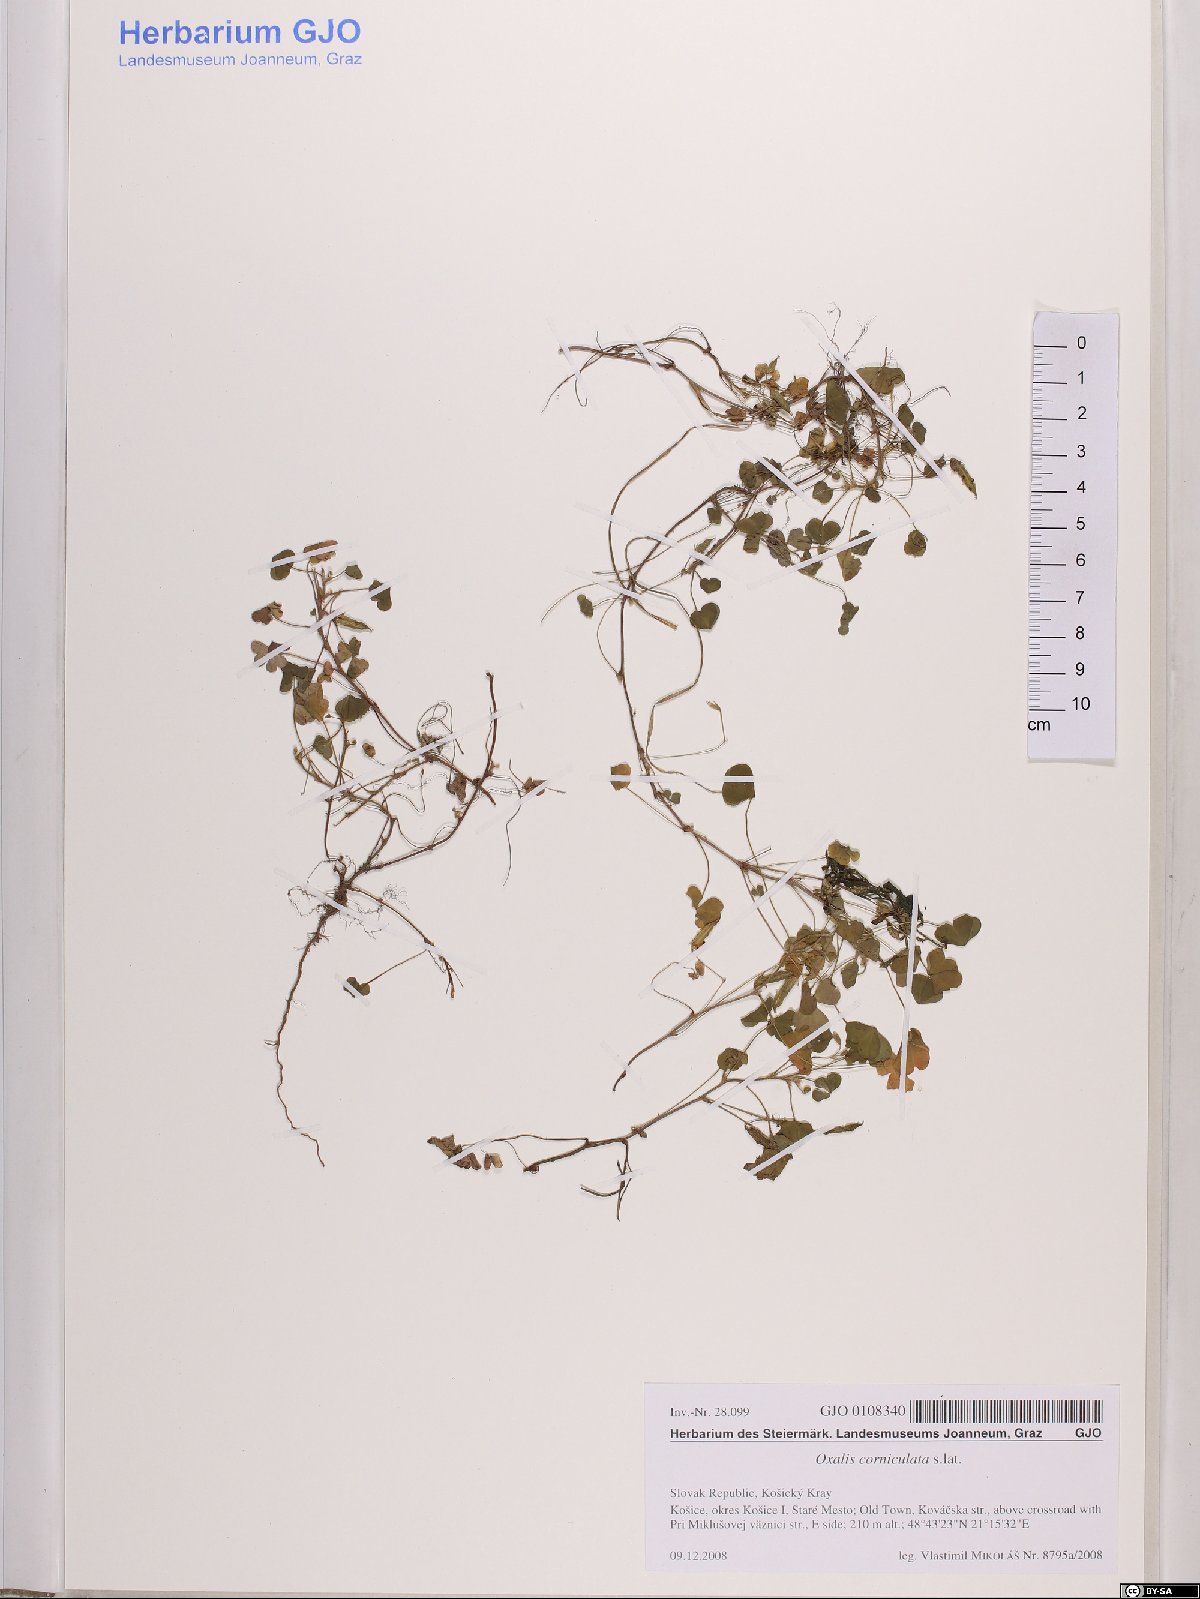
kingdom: Plantae
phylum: Tracheophyta
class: Magnoliopsida
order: Oxalidales
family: Oxalidaceae
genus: Oxalis
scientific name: Oxalis corniculata
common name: Procumbent yellow-sorrel
